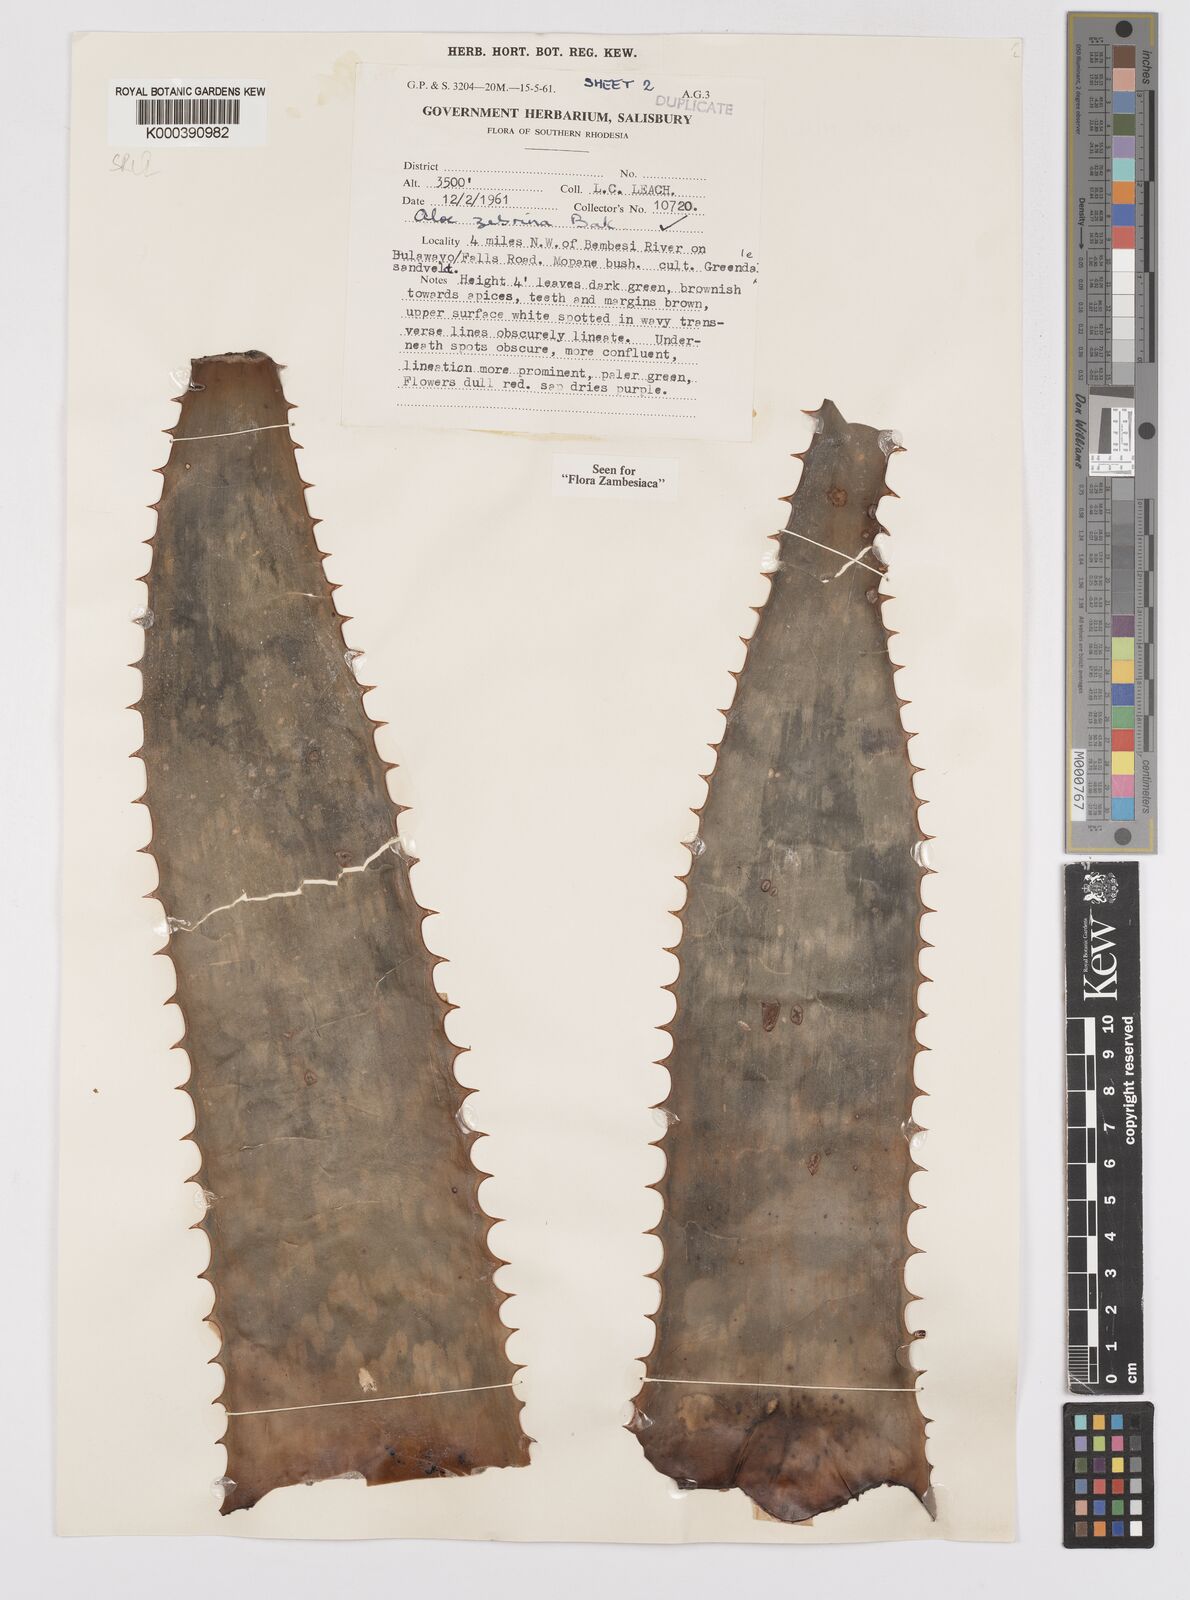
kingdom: Plantae
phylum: Tracheophyta
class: Liliopsida
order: Asparagales
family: Asphodelaceae
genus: Aloe
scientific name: Aloe zebrina
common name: Zebra-leaf aloe
